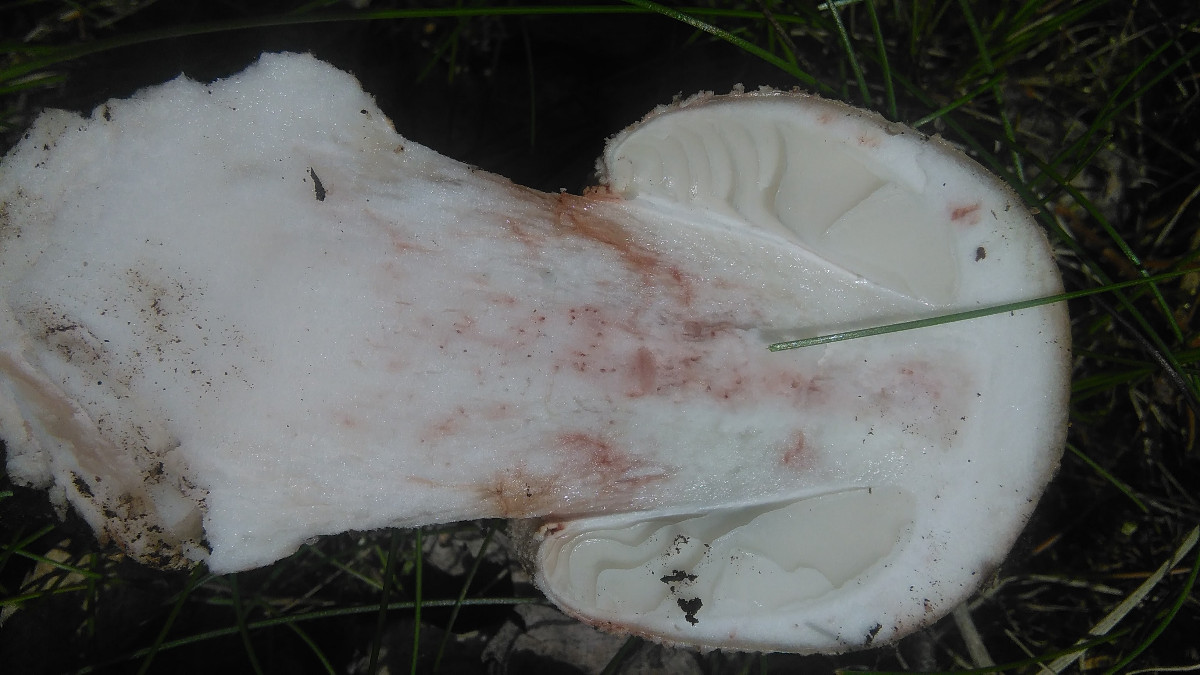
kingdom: Fungi
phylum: Basidiomycota
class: Agaricomycetes
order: Agaricales
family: Amanitaceae
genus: Amanita
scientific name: Amanita rubescens
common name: rødmende fluesvamp
